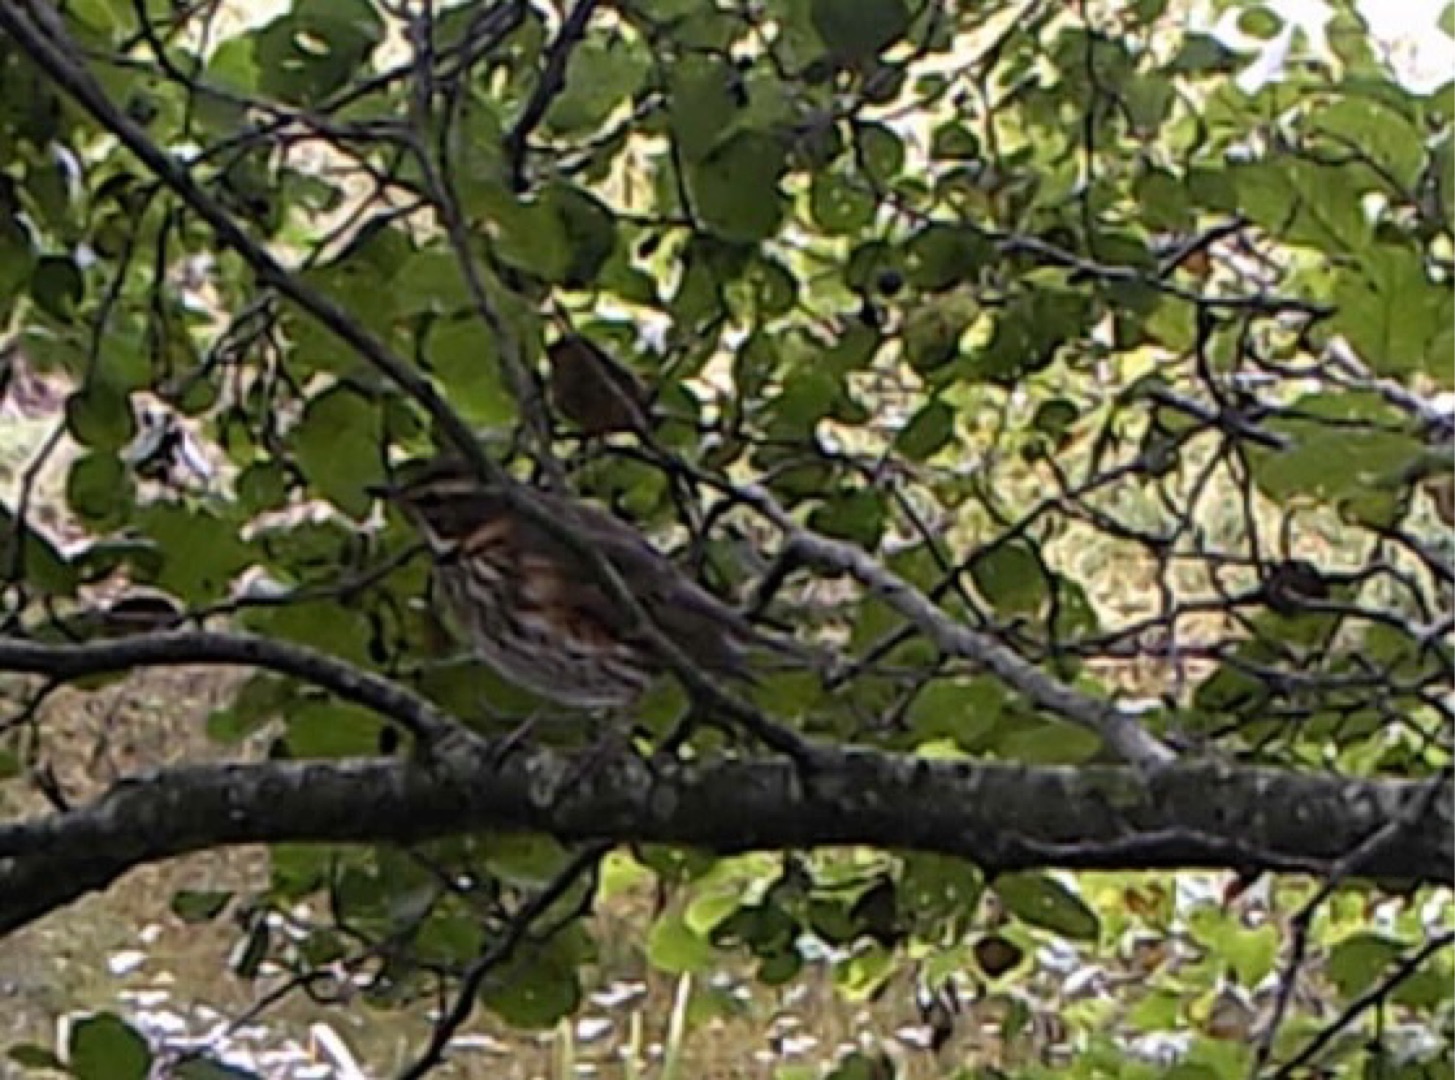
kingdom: Animalia
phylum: Chordata
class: Aves
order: Passeriformes
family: Turdidae
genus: Turdus
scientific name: Turdus iliacus
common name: Vindrossel
